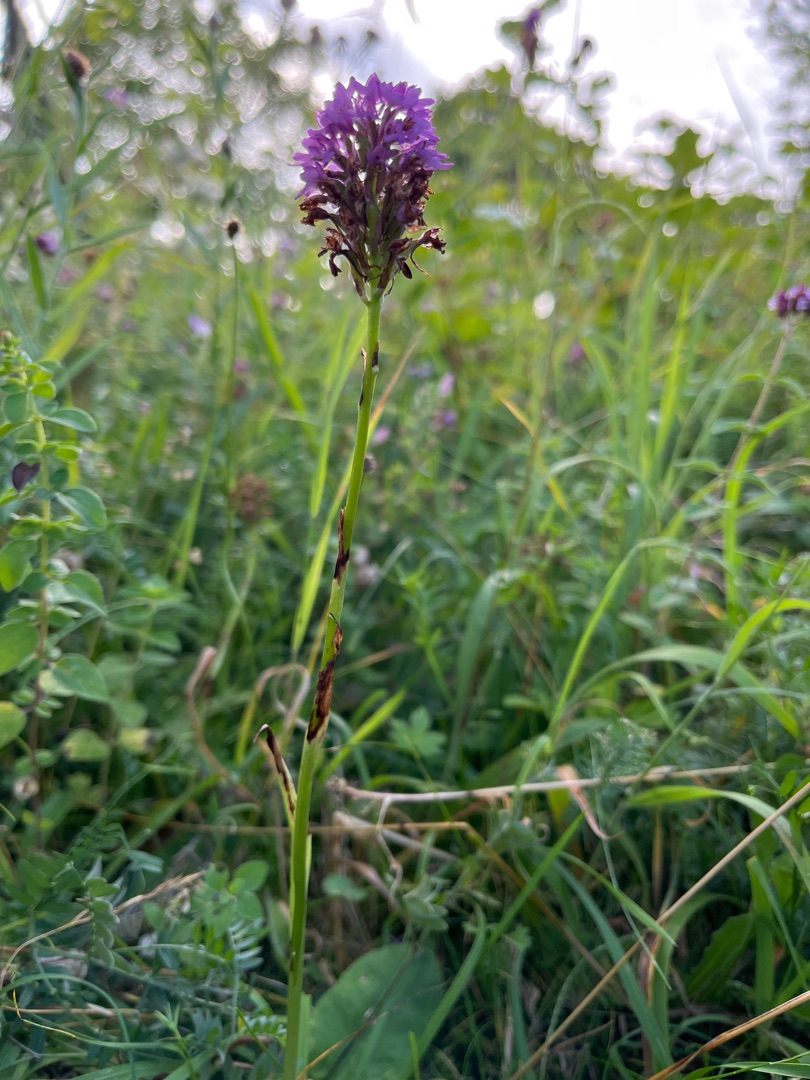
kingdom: Plantae
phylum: Tracheophyta
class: Liliopsida
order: Asparagales
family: Orchidaceae
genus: Anacamptis
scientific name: Anacamptis pyramidalis
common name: Horndrager
